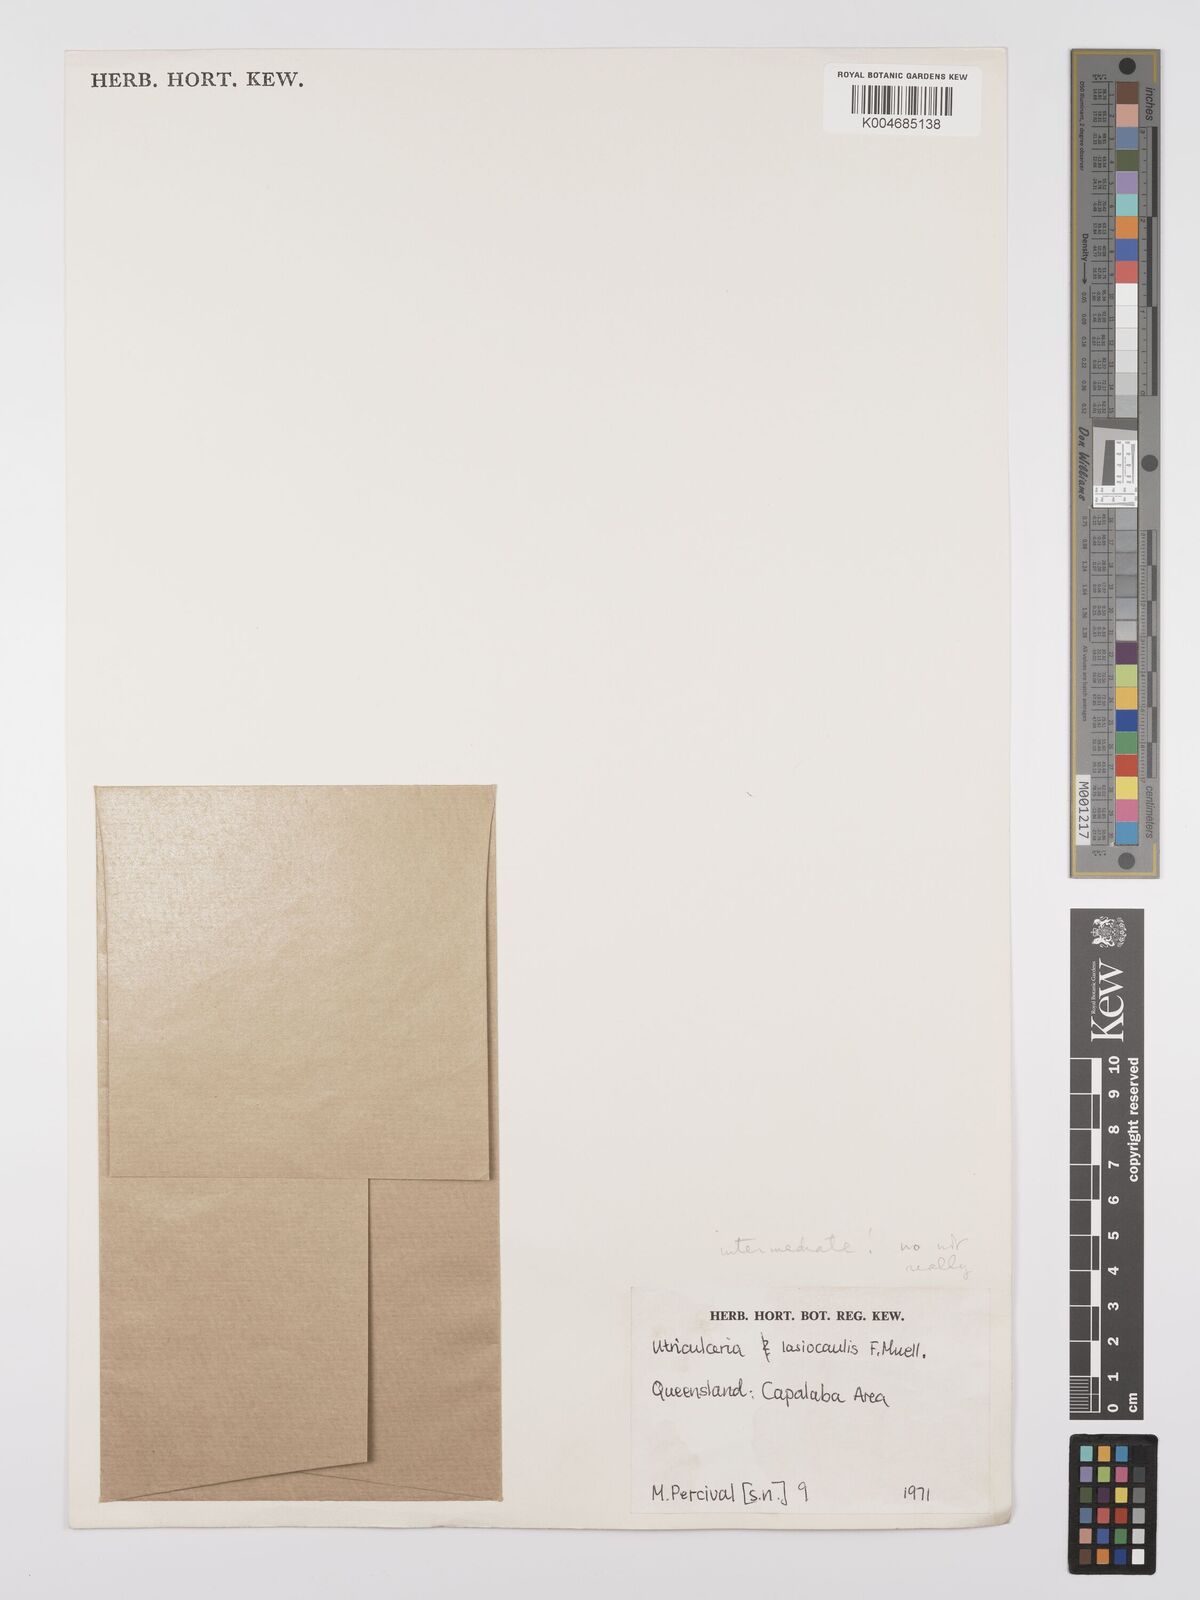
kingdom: Plantae
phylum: Tracheophyta
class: Magnoliopsida
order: Lamiales
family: Lentibulariaceae
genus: Utricularia
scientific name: Utricularia lasiocaulis
